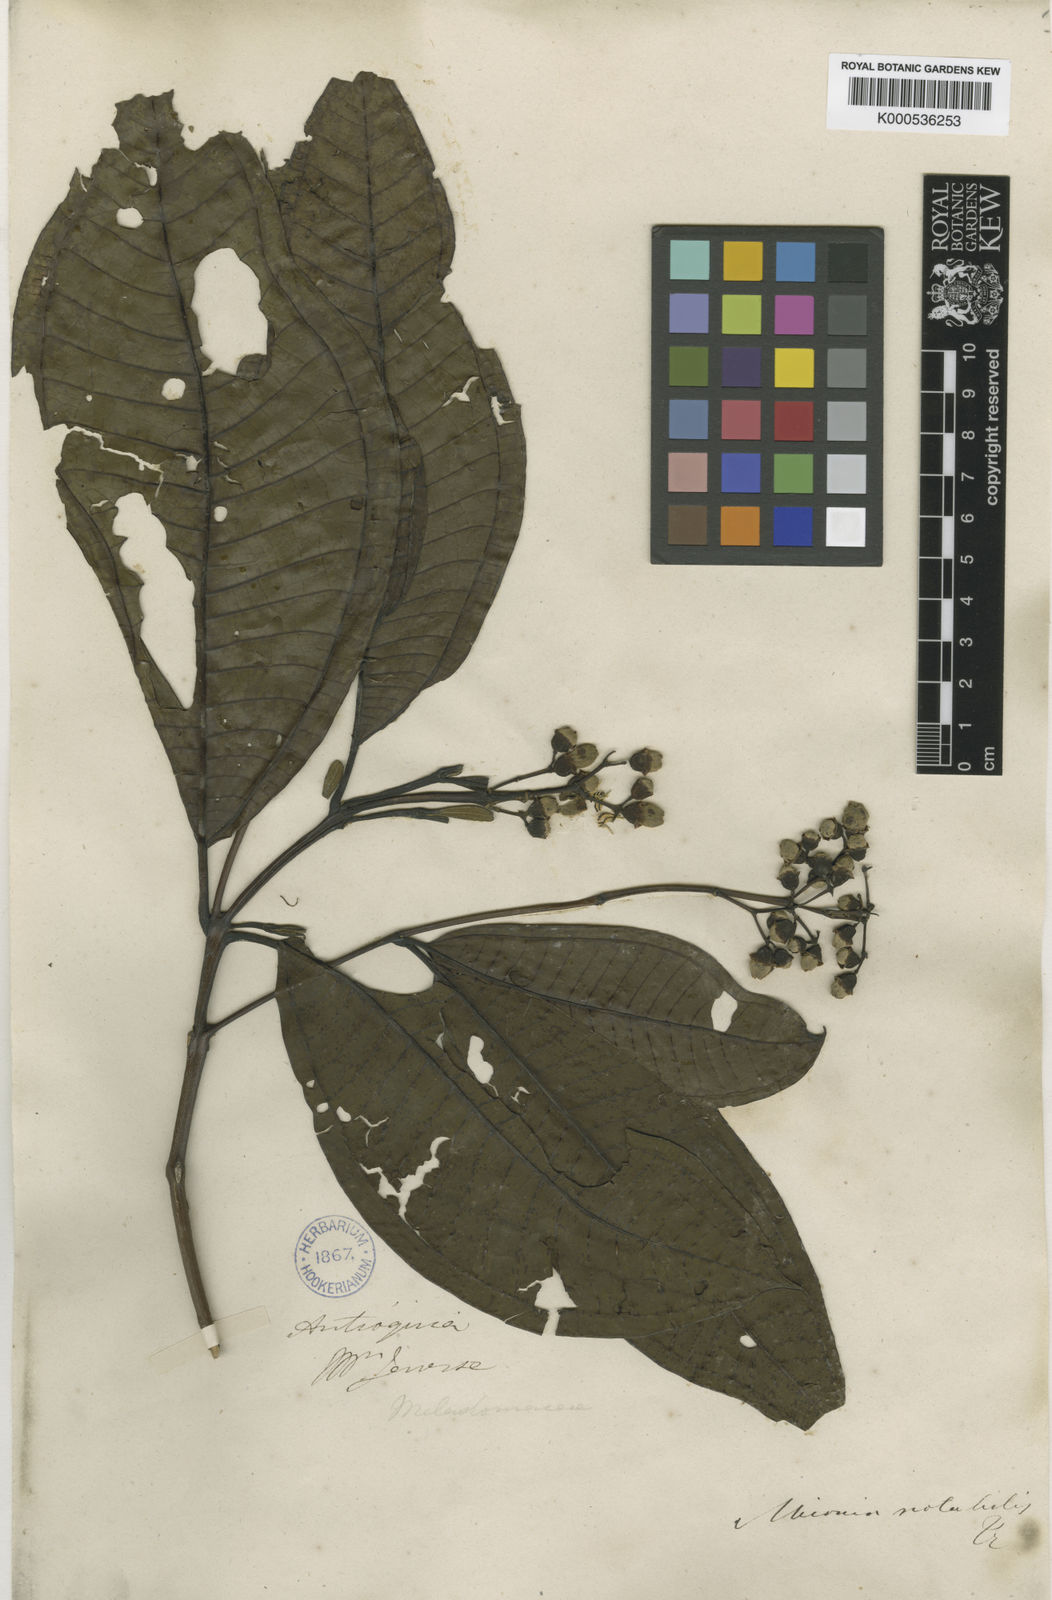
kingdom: Plantae
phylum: Tracheophyta
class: Magnoliopsida
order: Myrtales
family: Melastomataceae
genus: Miconia
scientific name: Miconia notabilis
